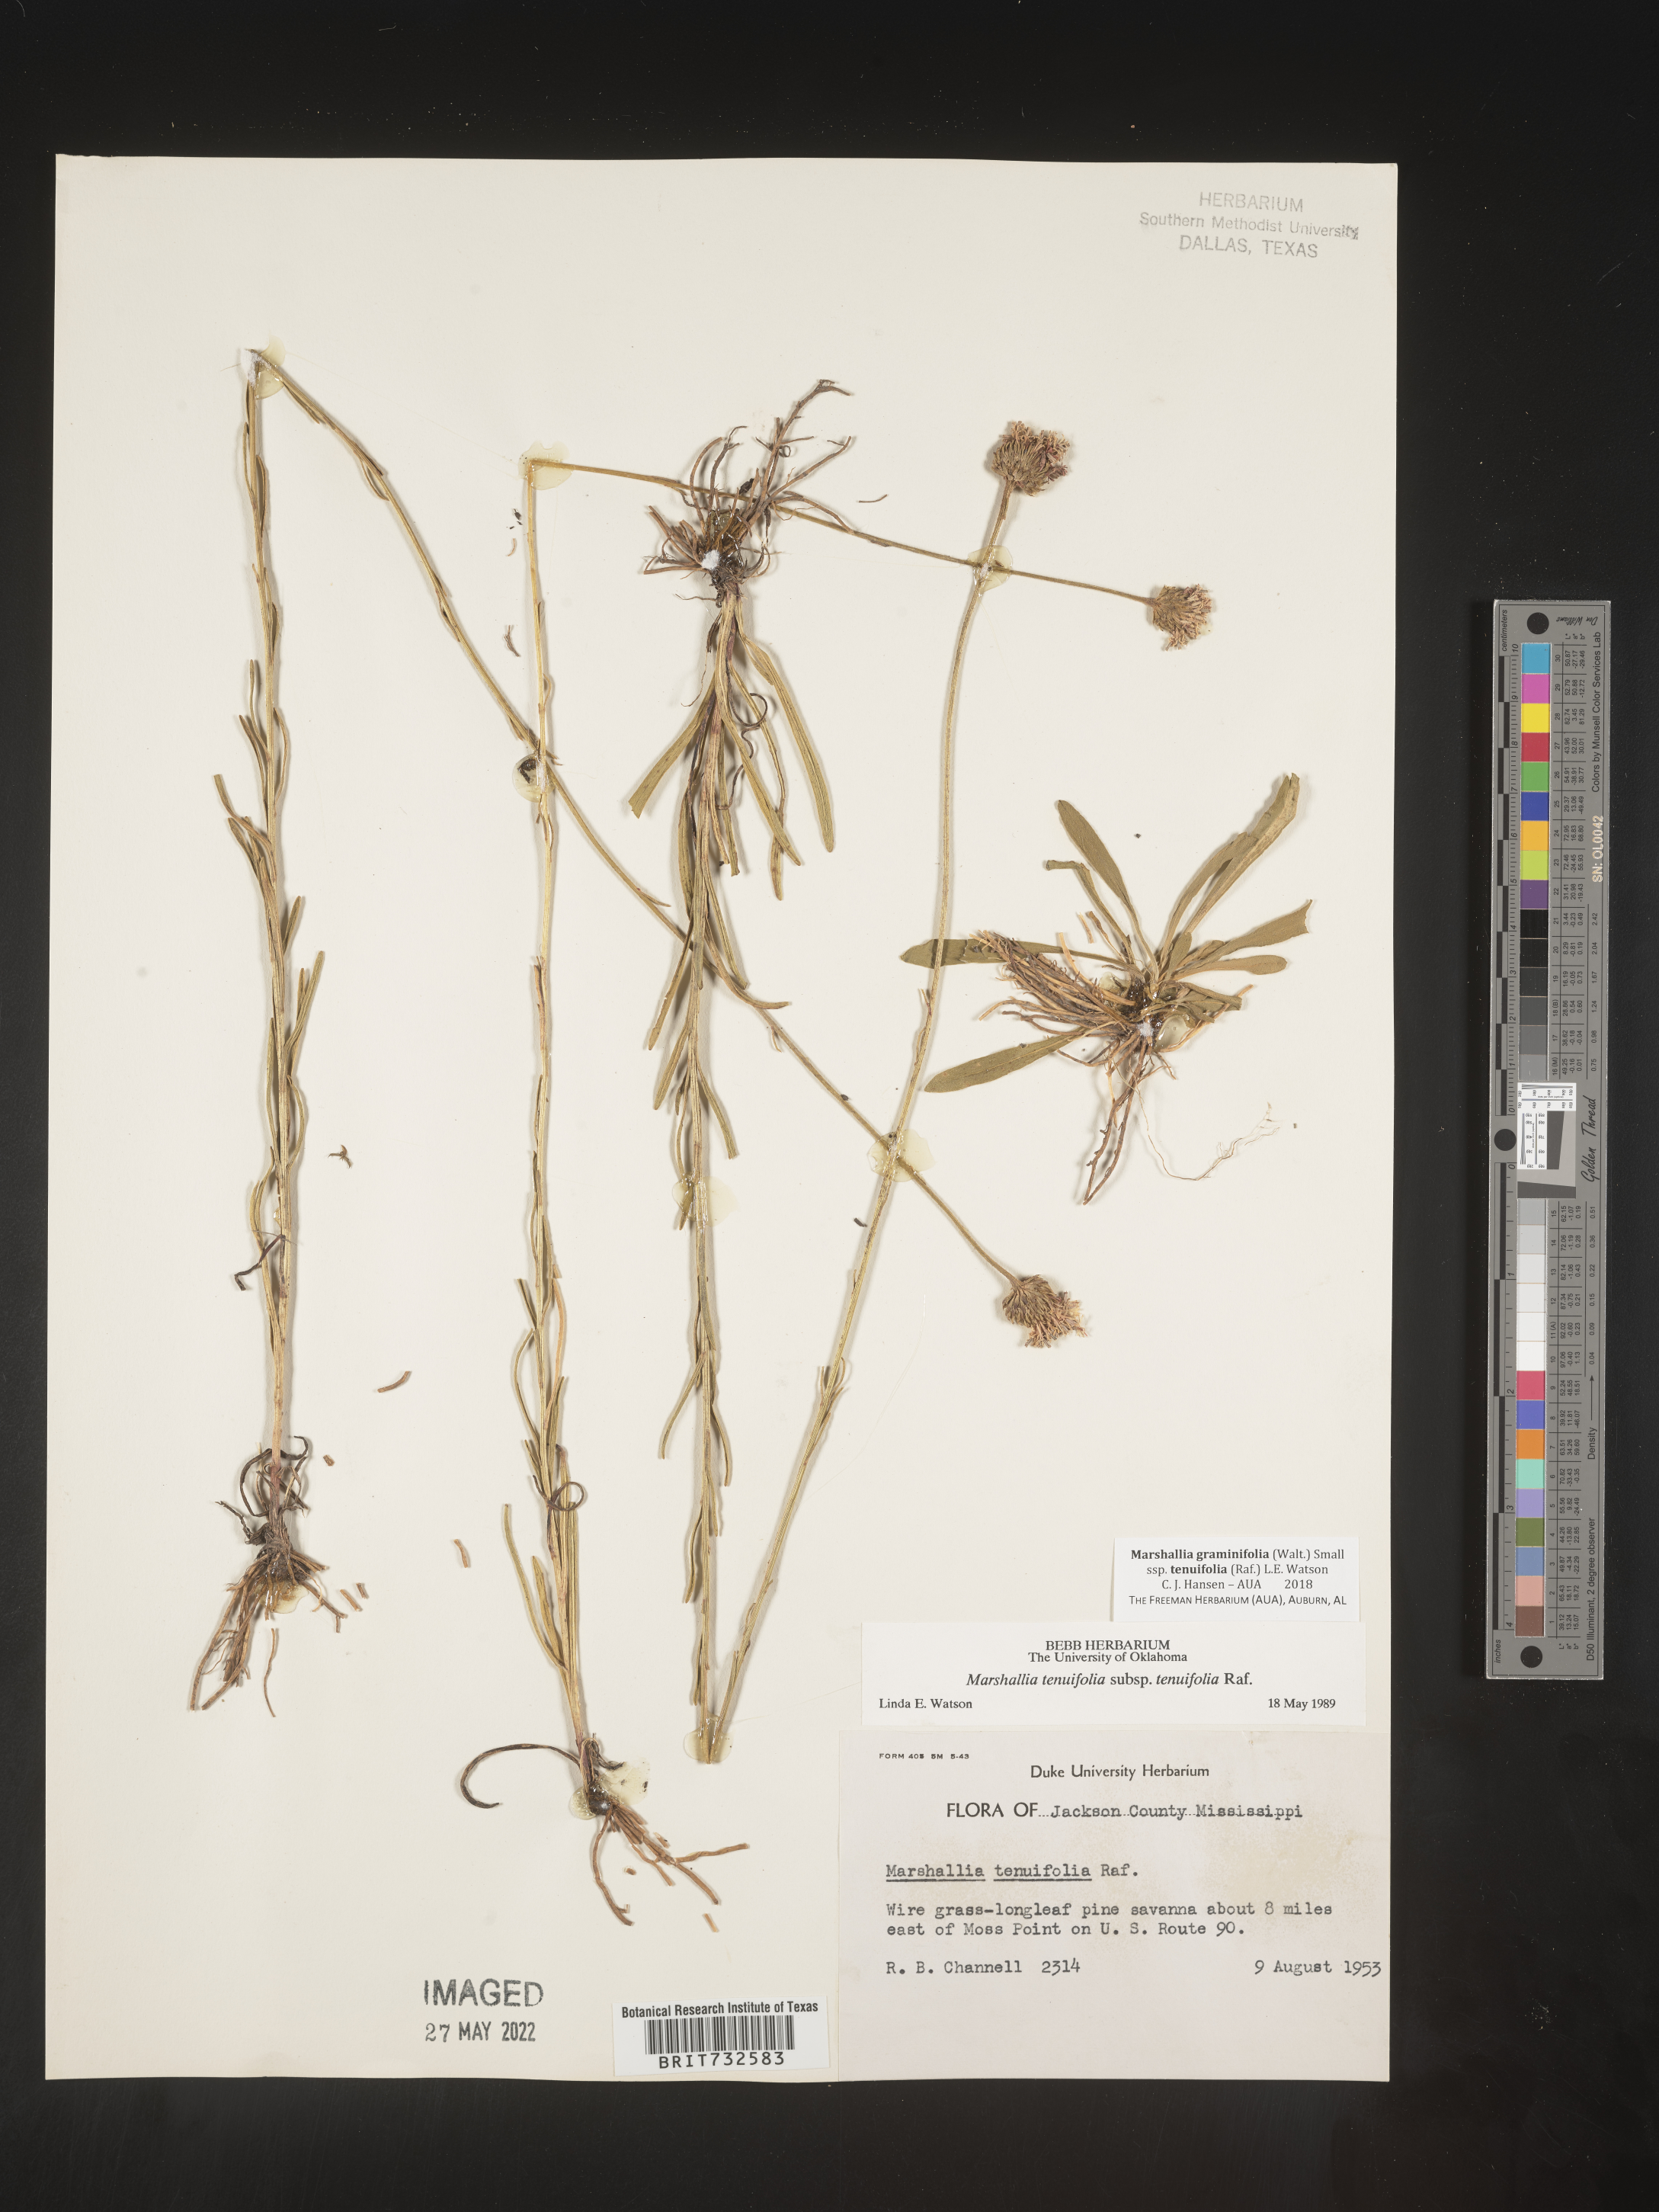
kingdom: Plantae
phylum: Tracheophyta
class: Magnoliopsida
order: Asterales
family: Asteraceae
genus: Marshallia
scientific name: Marshallia graminifolia
